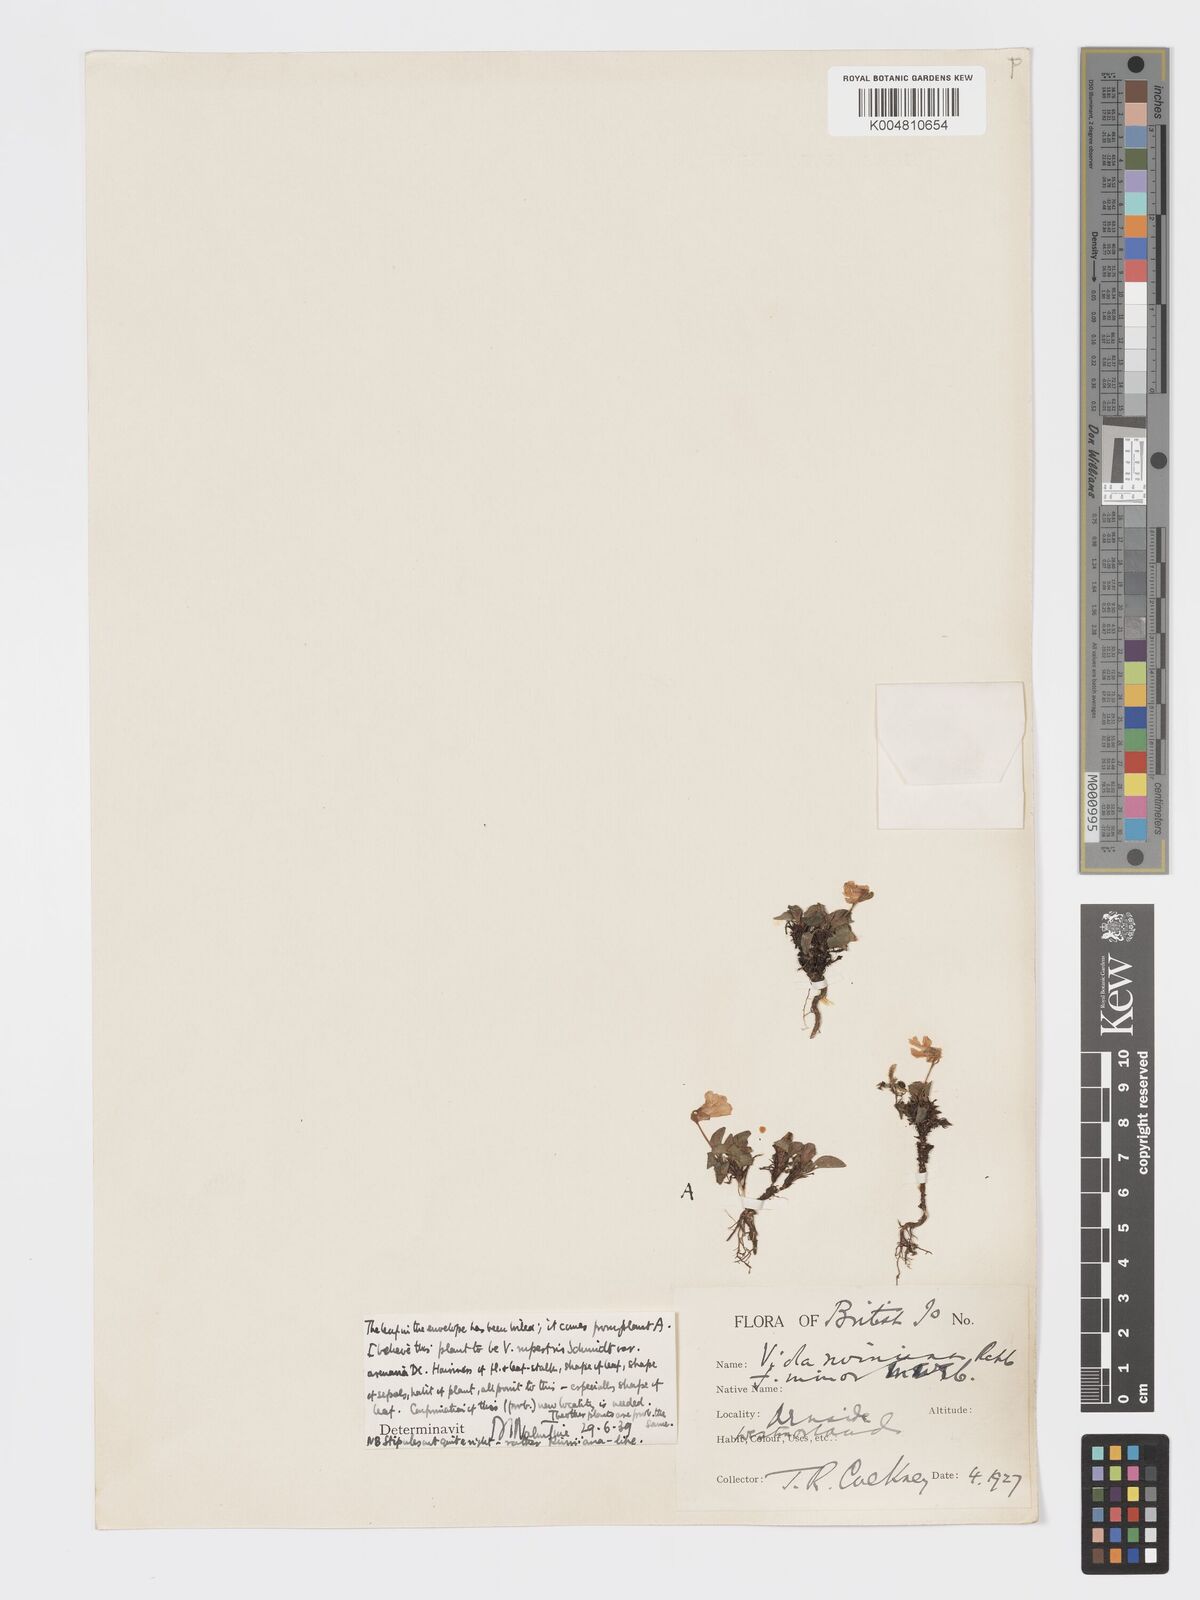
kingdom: Plantae
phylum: Tracheophyta
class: Magnoliopsida
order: Malpighiales
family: Violaceae
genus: Viola
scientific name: Viola rupestris
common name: Teesdale violet
